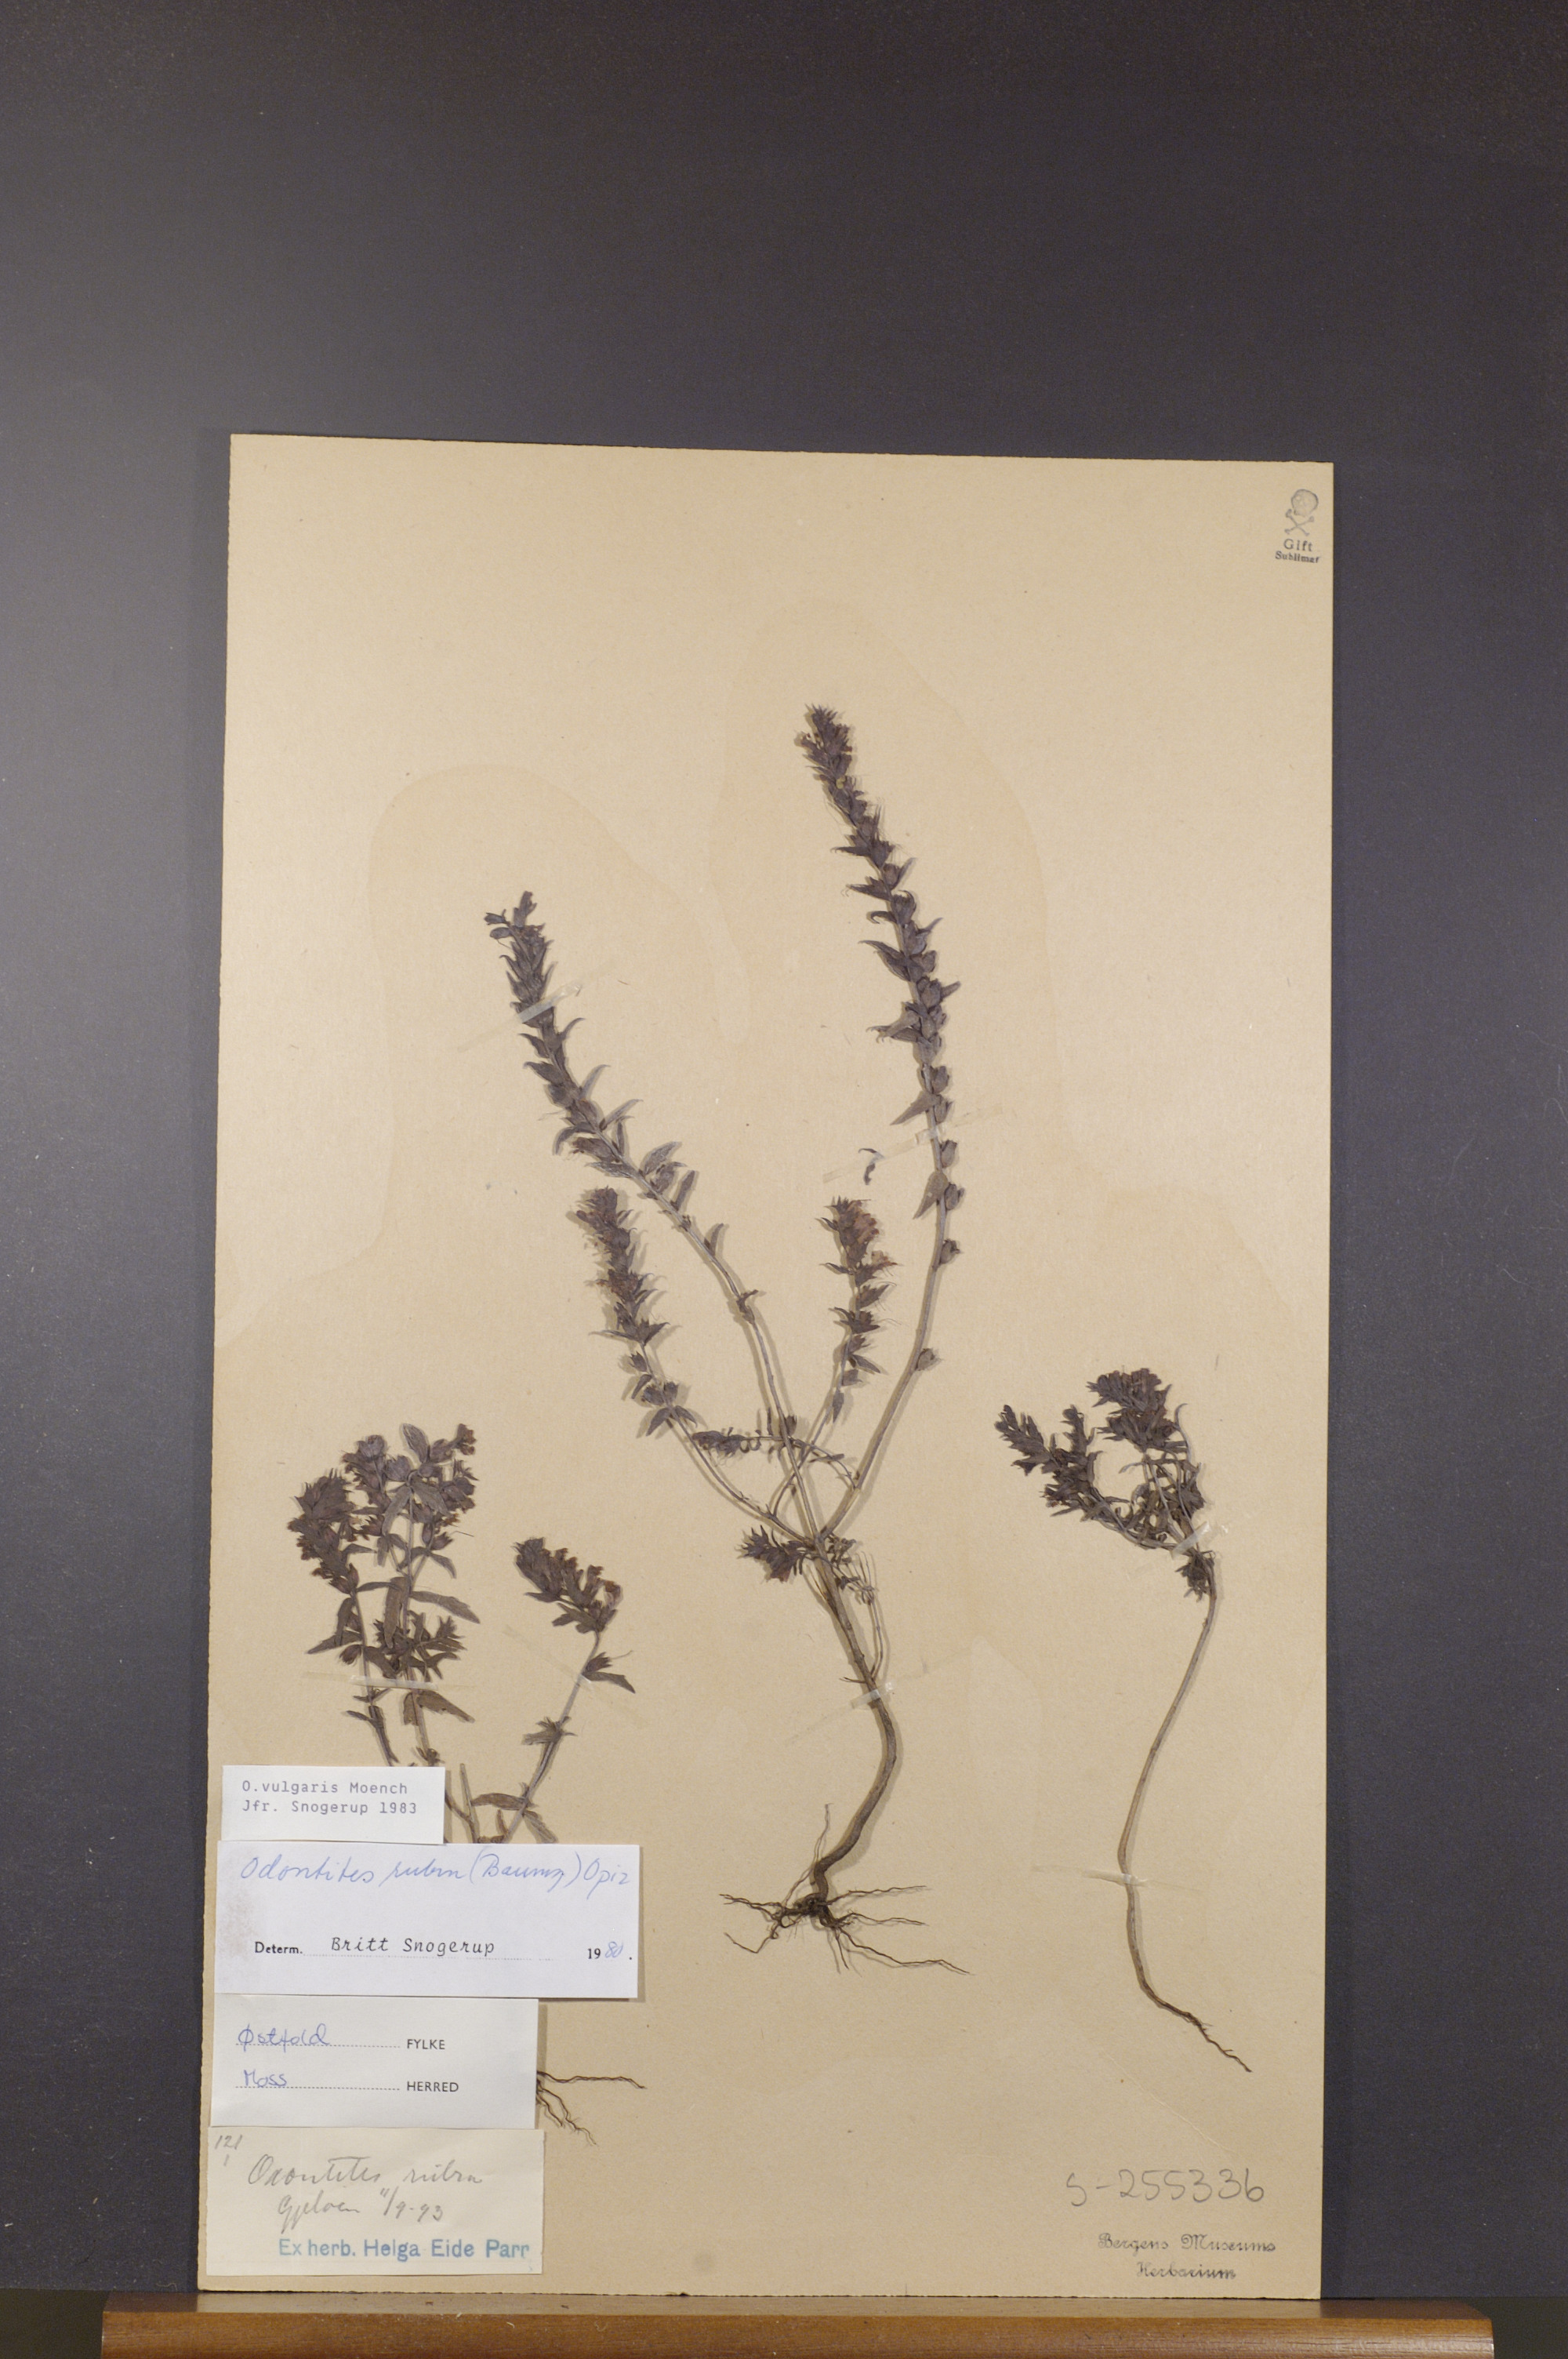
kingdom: Plantae
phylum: Tracheophyta
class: Magnoliopsida
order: Lamiales
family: Orobanchaceae
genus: Odontites
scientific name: Odontites vulgaris
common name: Broomrape
